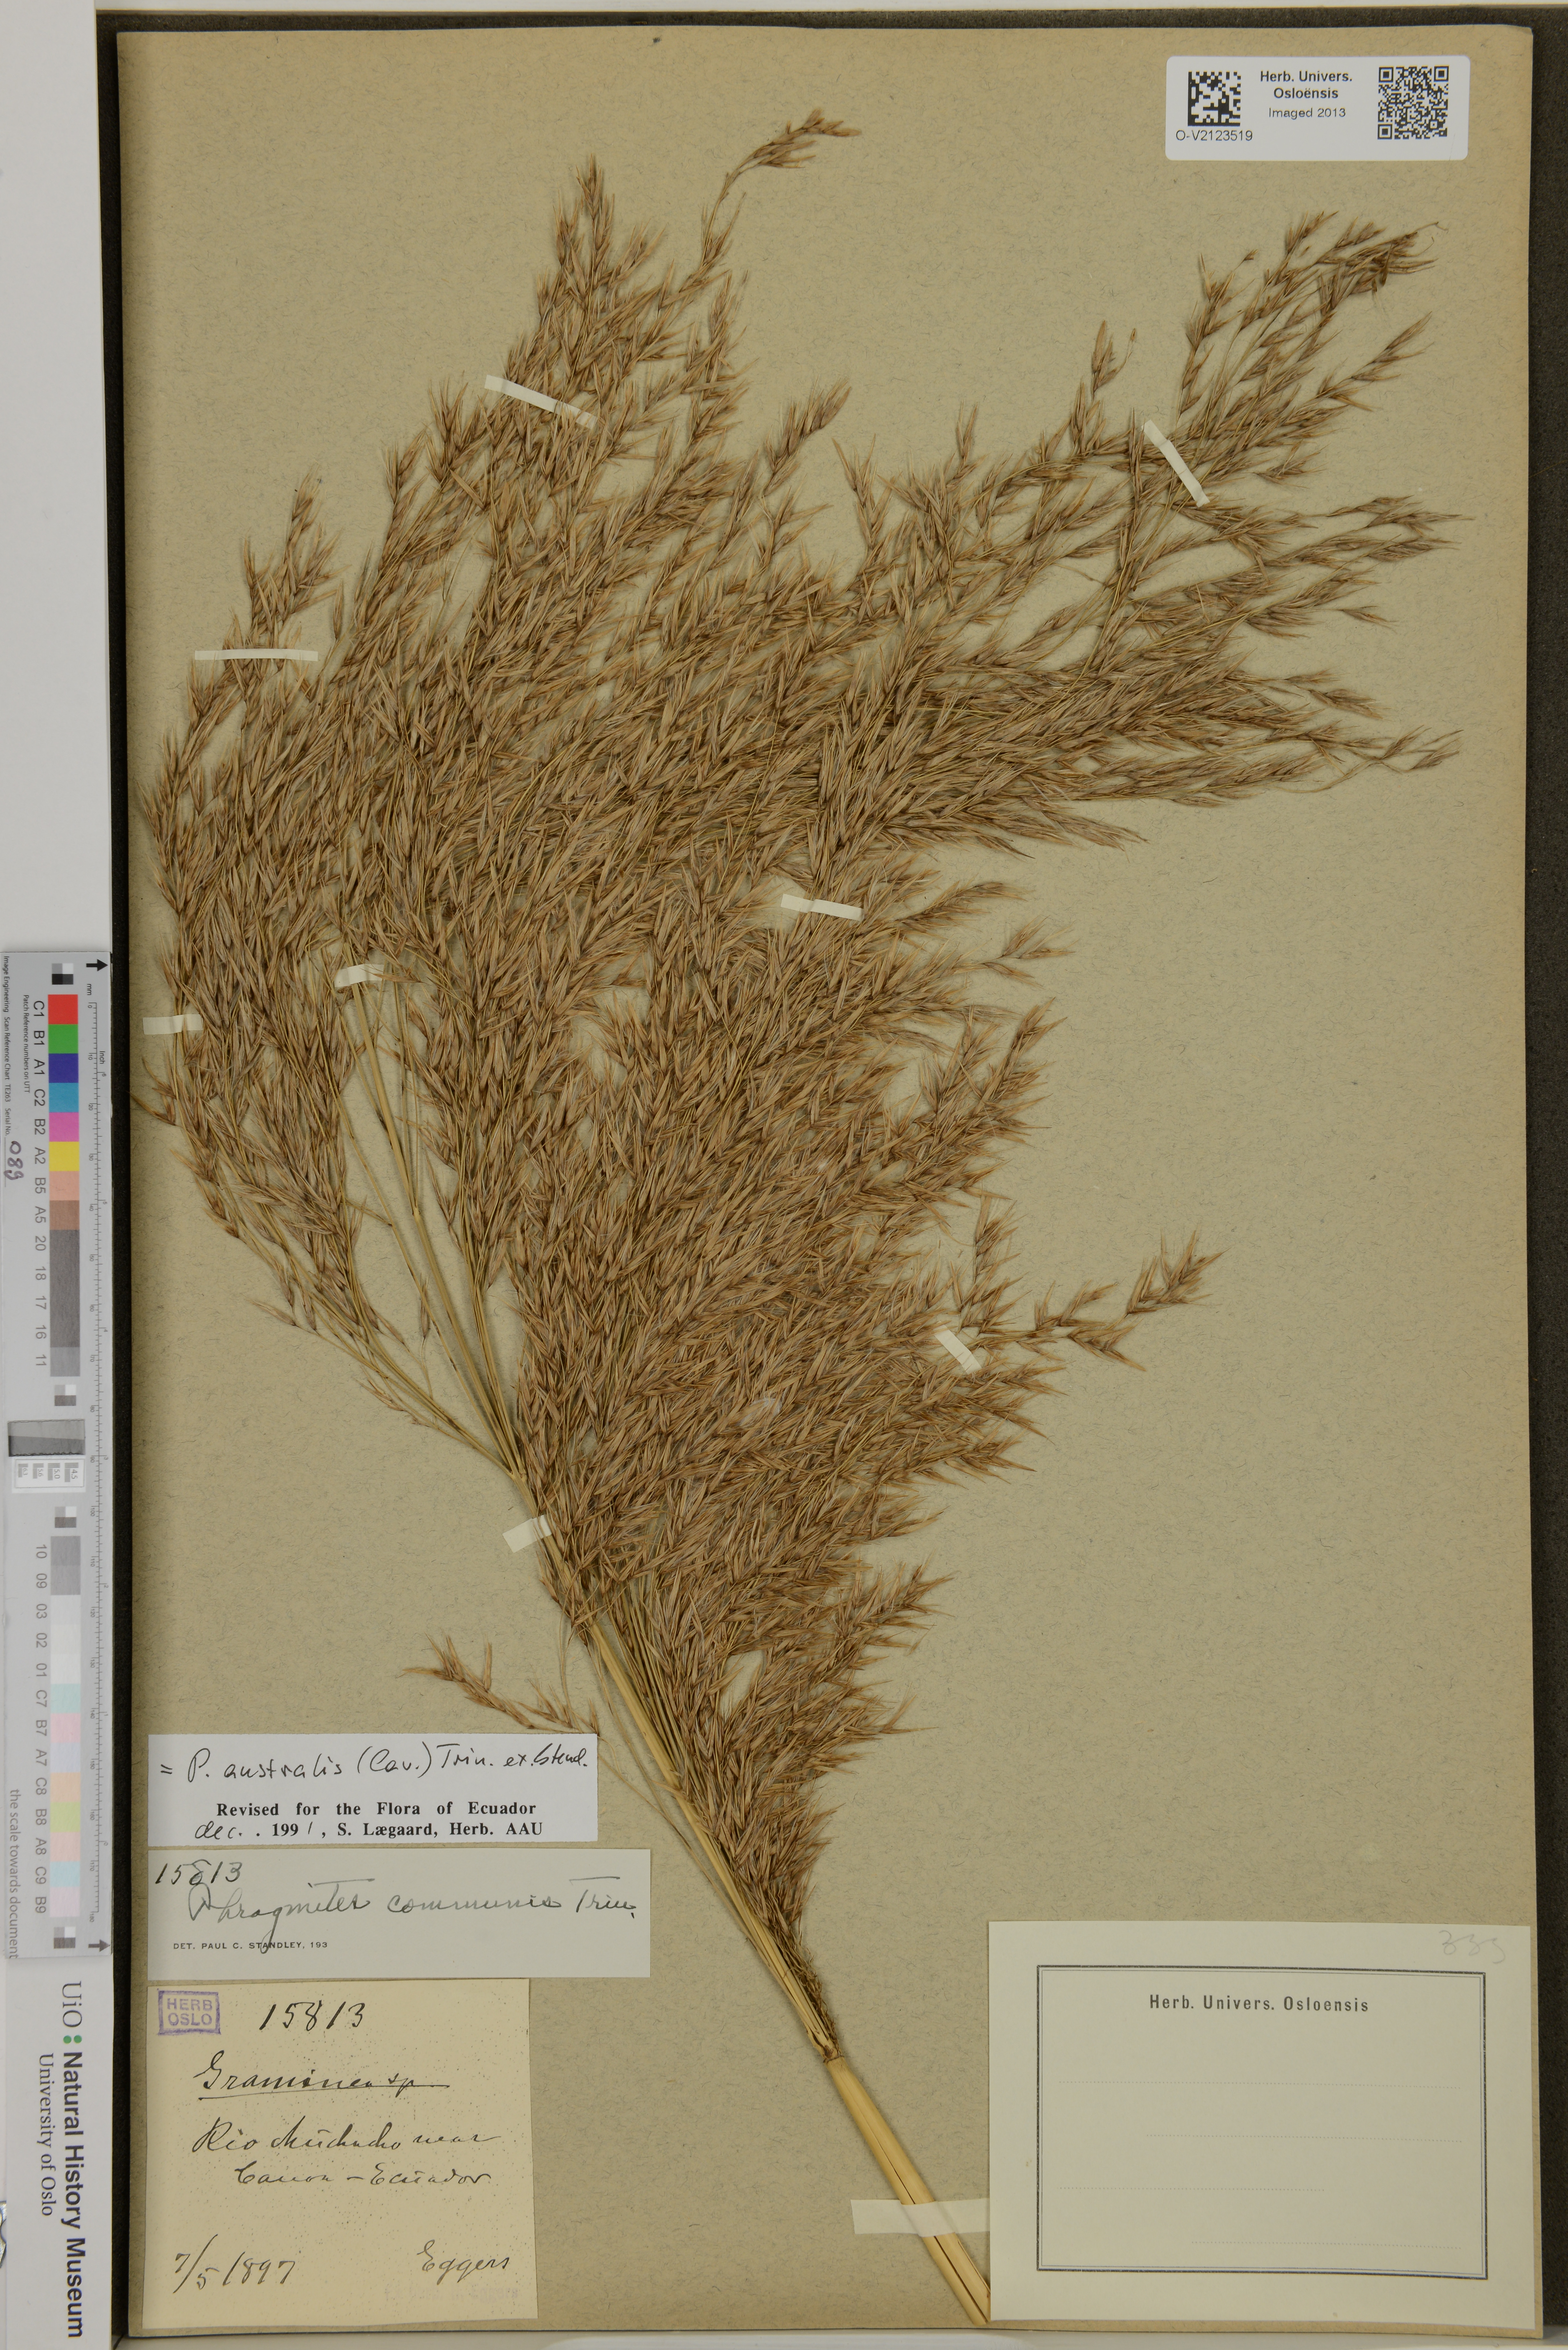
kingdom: Plantae
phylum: Tracheophyta
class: Liliopsida
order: Poales
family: Poaceae
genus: Phragmites
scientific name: Phragmites australis
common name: Common reed
